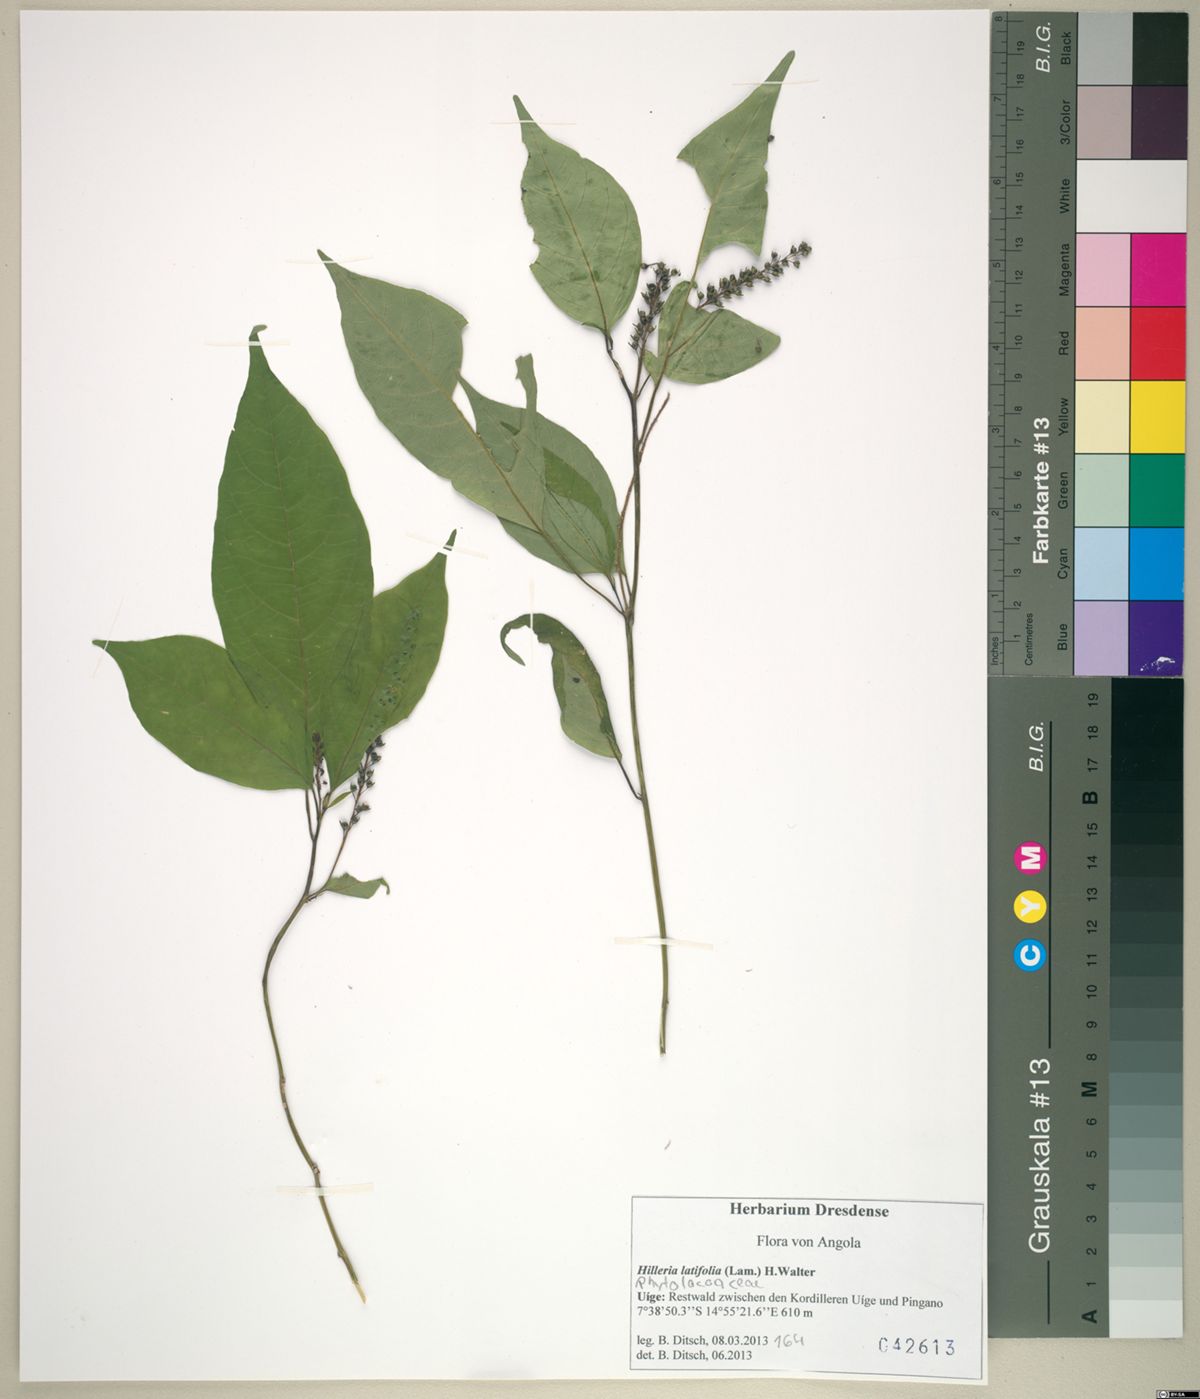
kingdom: Plantae
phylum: Tracheophyta
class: Magnoliopsida
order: Caryophyllales
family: Phytolaccaceae
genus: Hilleria
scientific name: Hilleria latifolia
